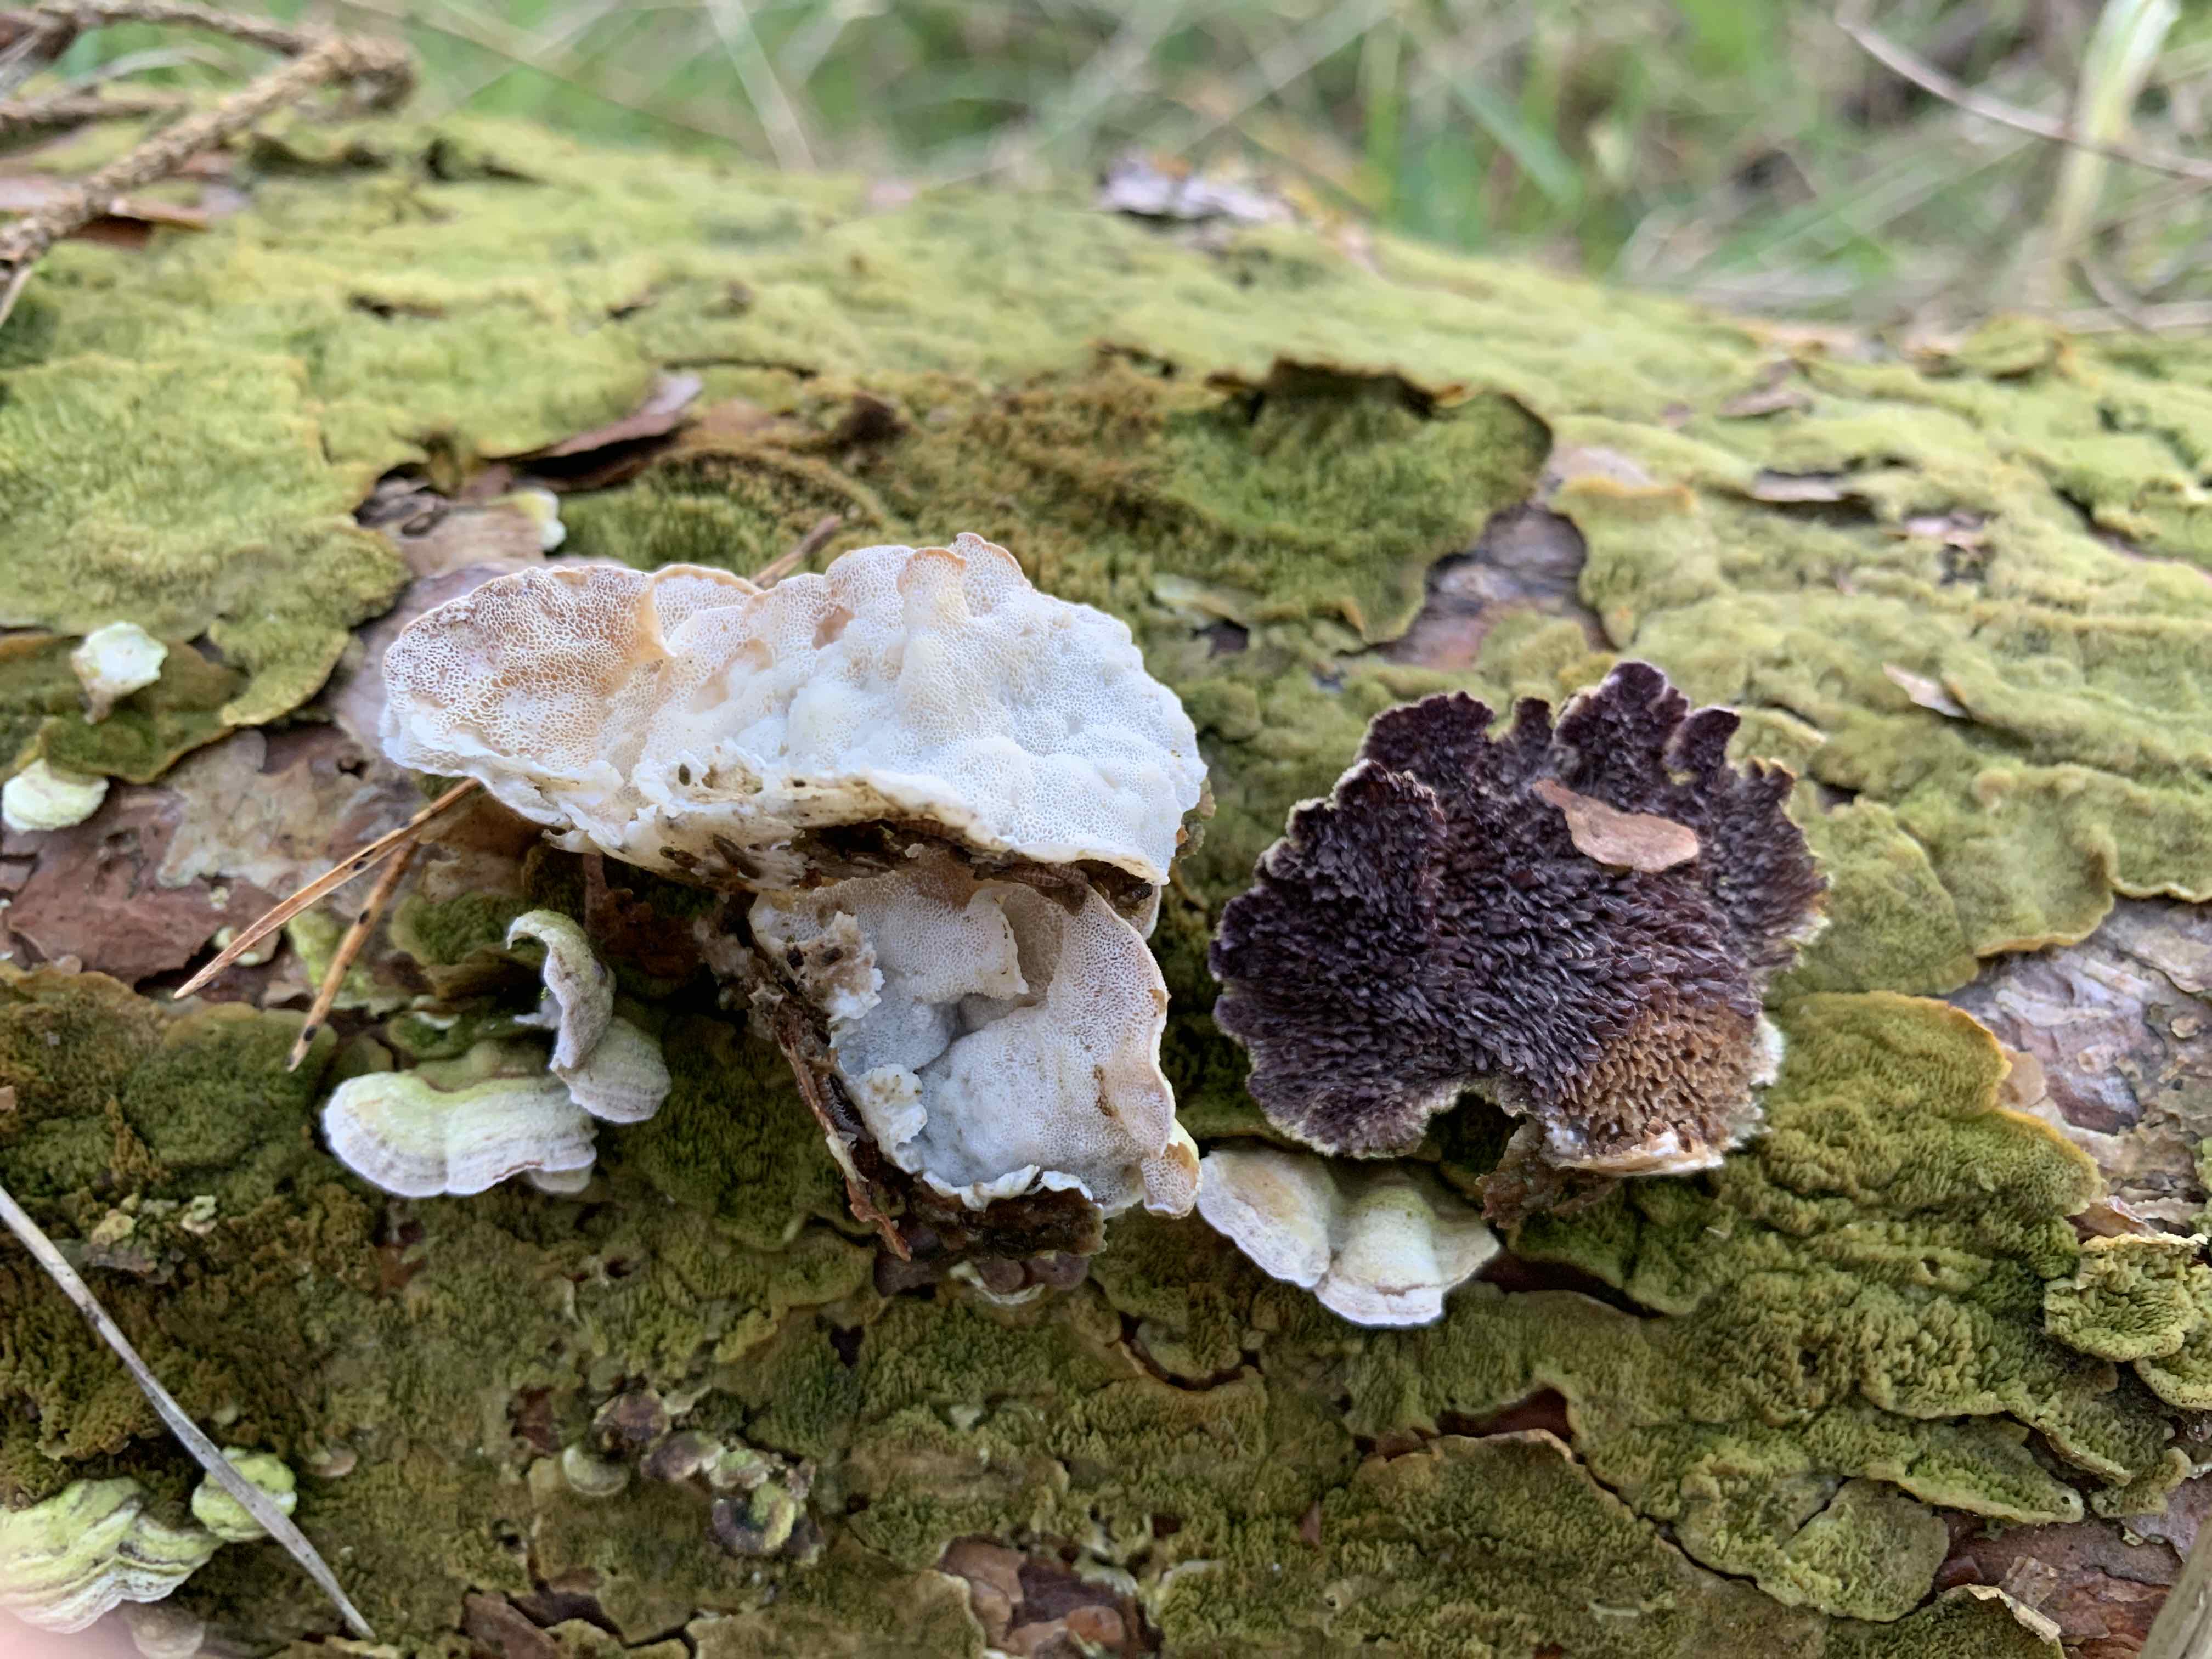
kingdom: Fungi
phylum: Basidiomycota
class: Agaricomycetes
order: Polyporales
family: Incrustoporiaceae
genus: Skeletocutis
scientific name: Skeletocutis carneogrisea
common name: rødgrå krystalporesvamp
